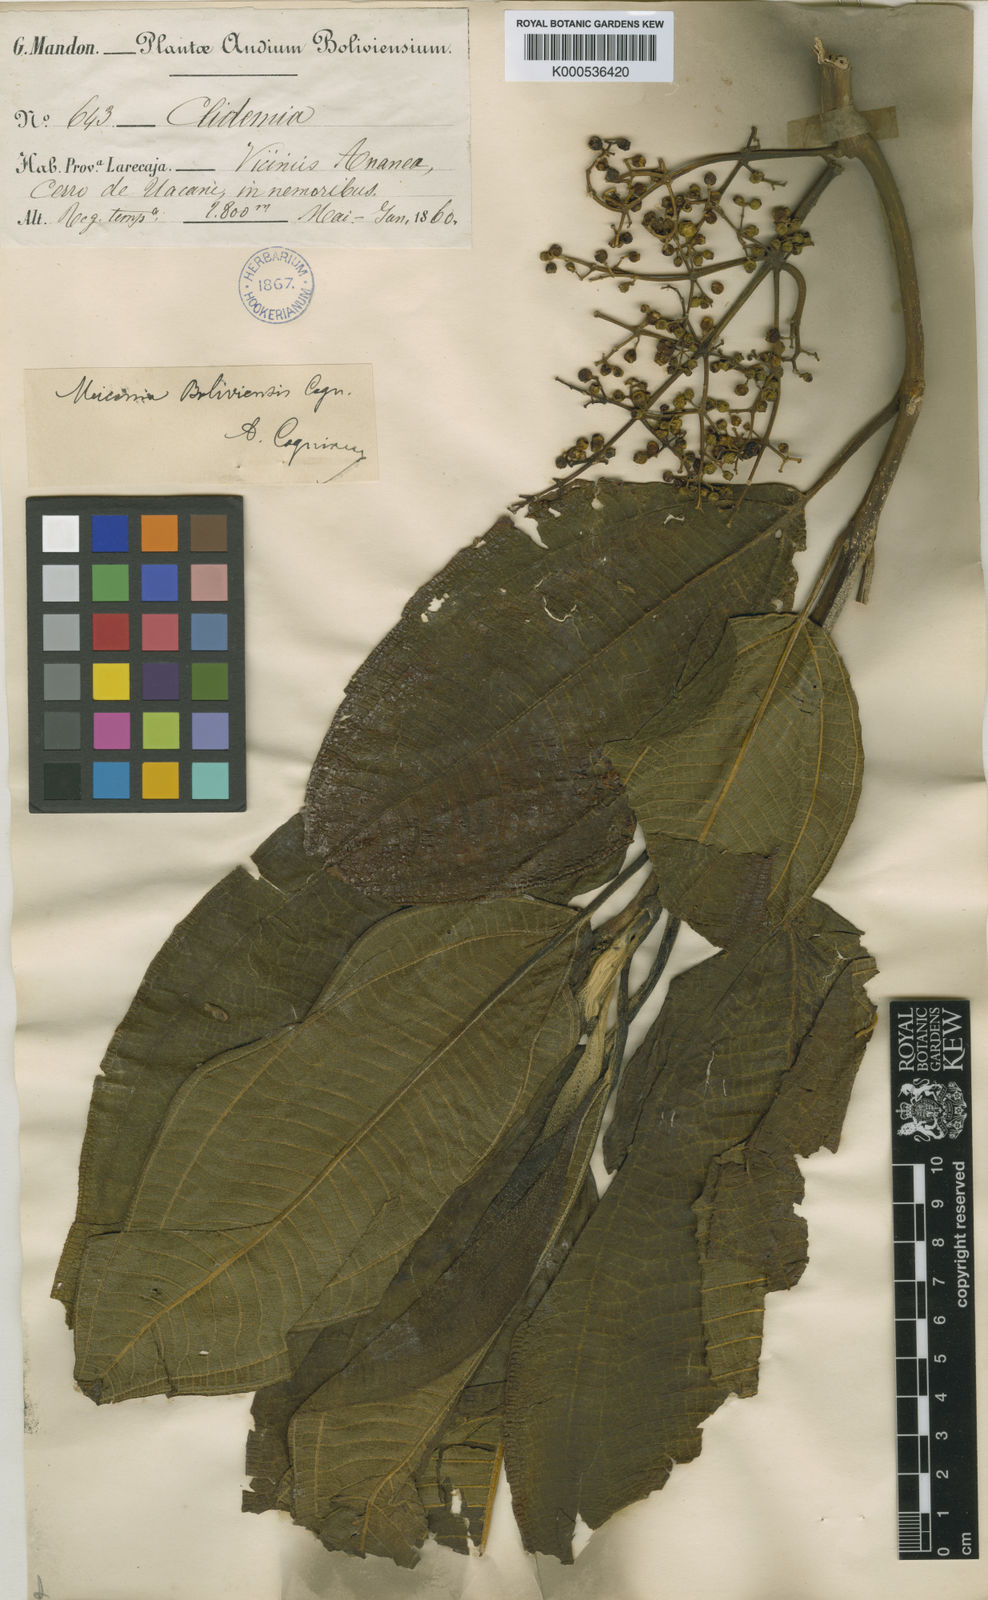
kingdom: Plantae
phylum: Tracheophyta
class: Magnoliopsida
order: Myrtales
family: Melastomataceae
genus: Miconia
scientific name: Miconia boliviensis
